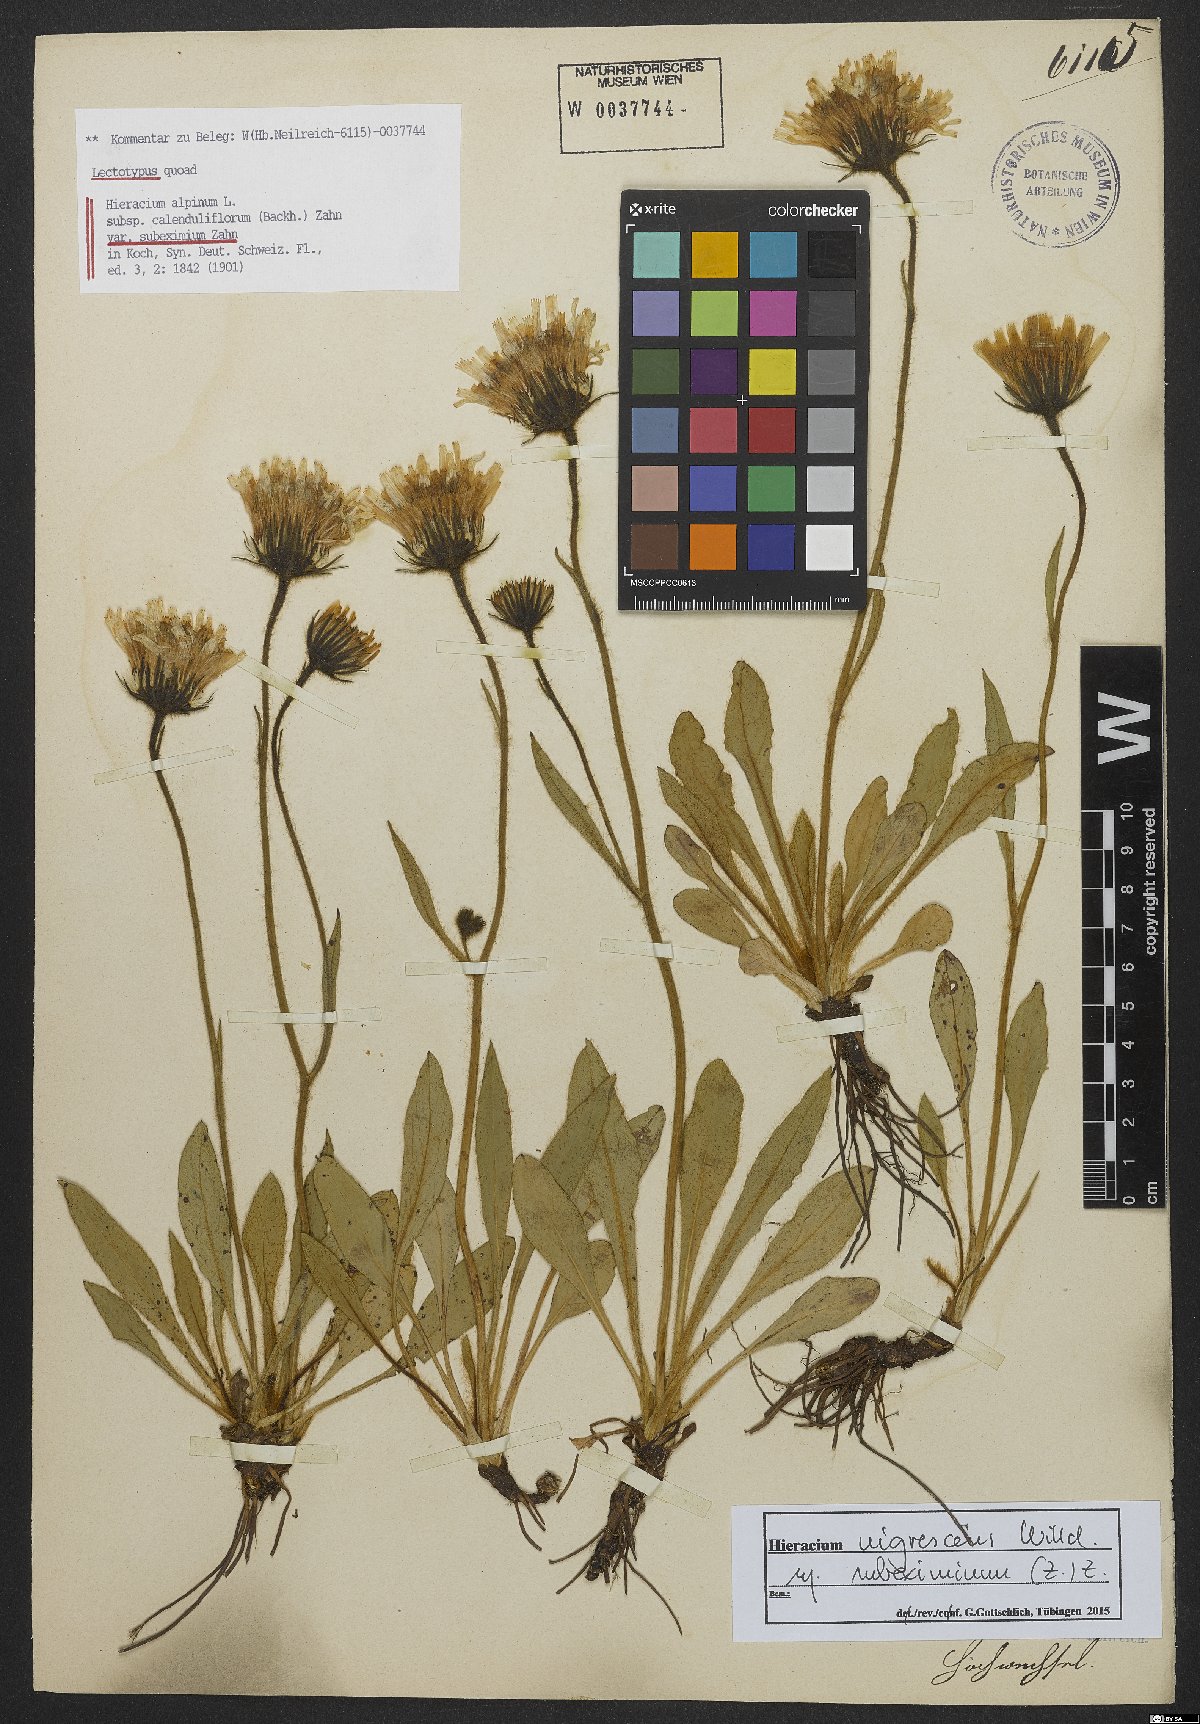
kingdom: Plantae
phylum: Tracheophyta
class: Magnoliopsida
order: Asterales
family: Asteraceae
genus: Hieracium
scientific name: Hieracium nigrescens
